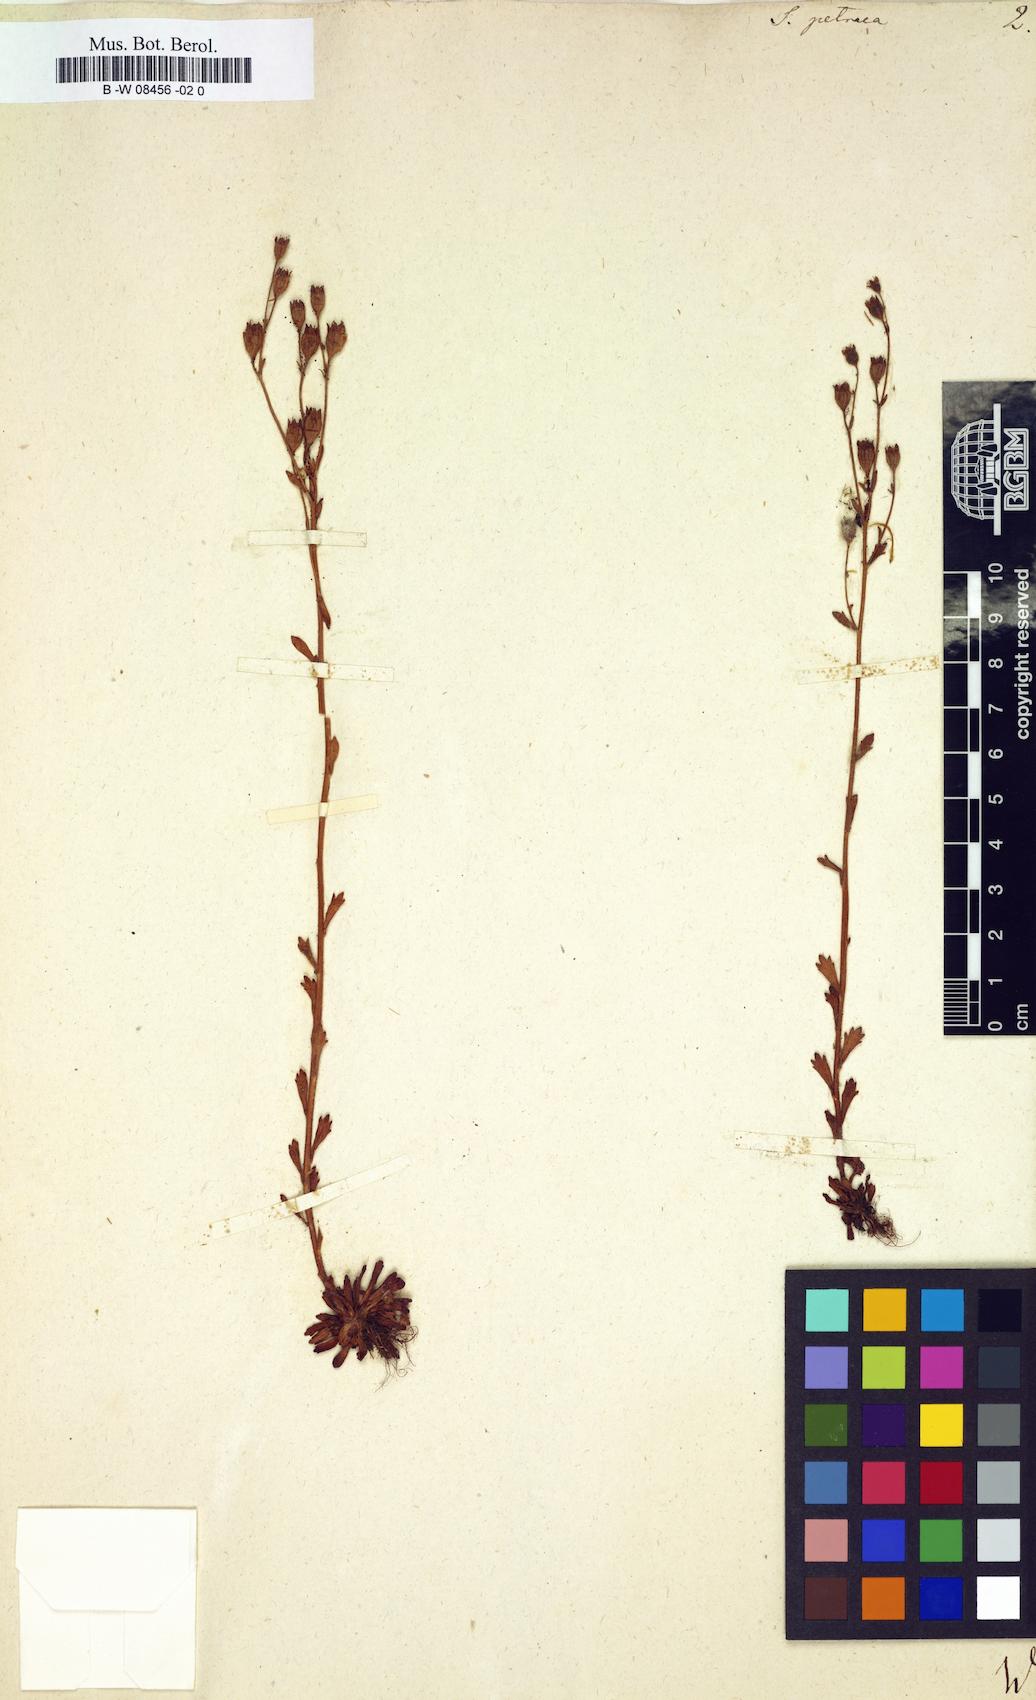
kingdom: Plantae
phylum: Tracheophyta
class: Magnoliopsida
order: Saxifragales
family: Saxifragaceae
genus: Saxifraga
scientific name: Saxifraga petraea
